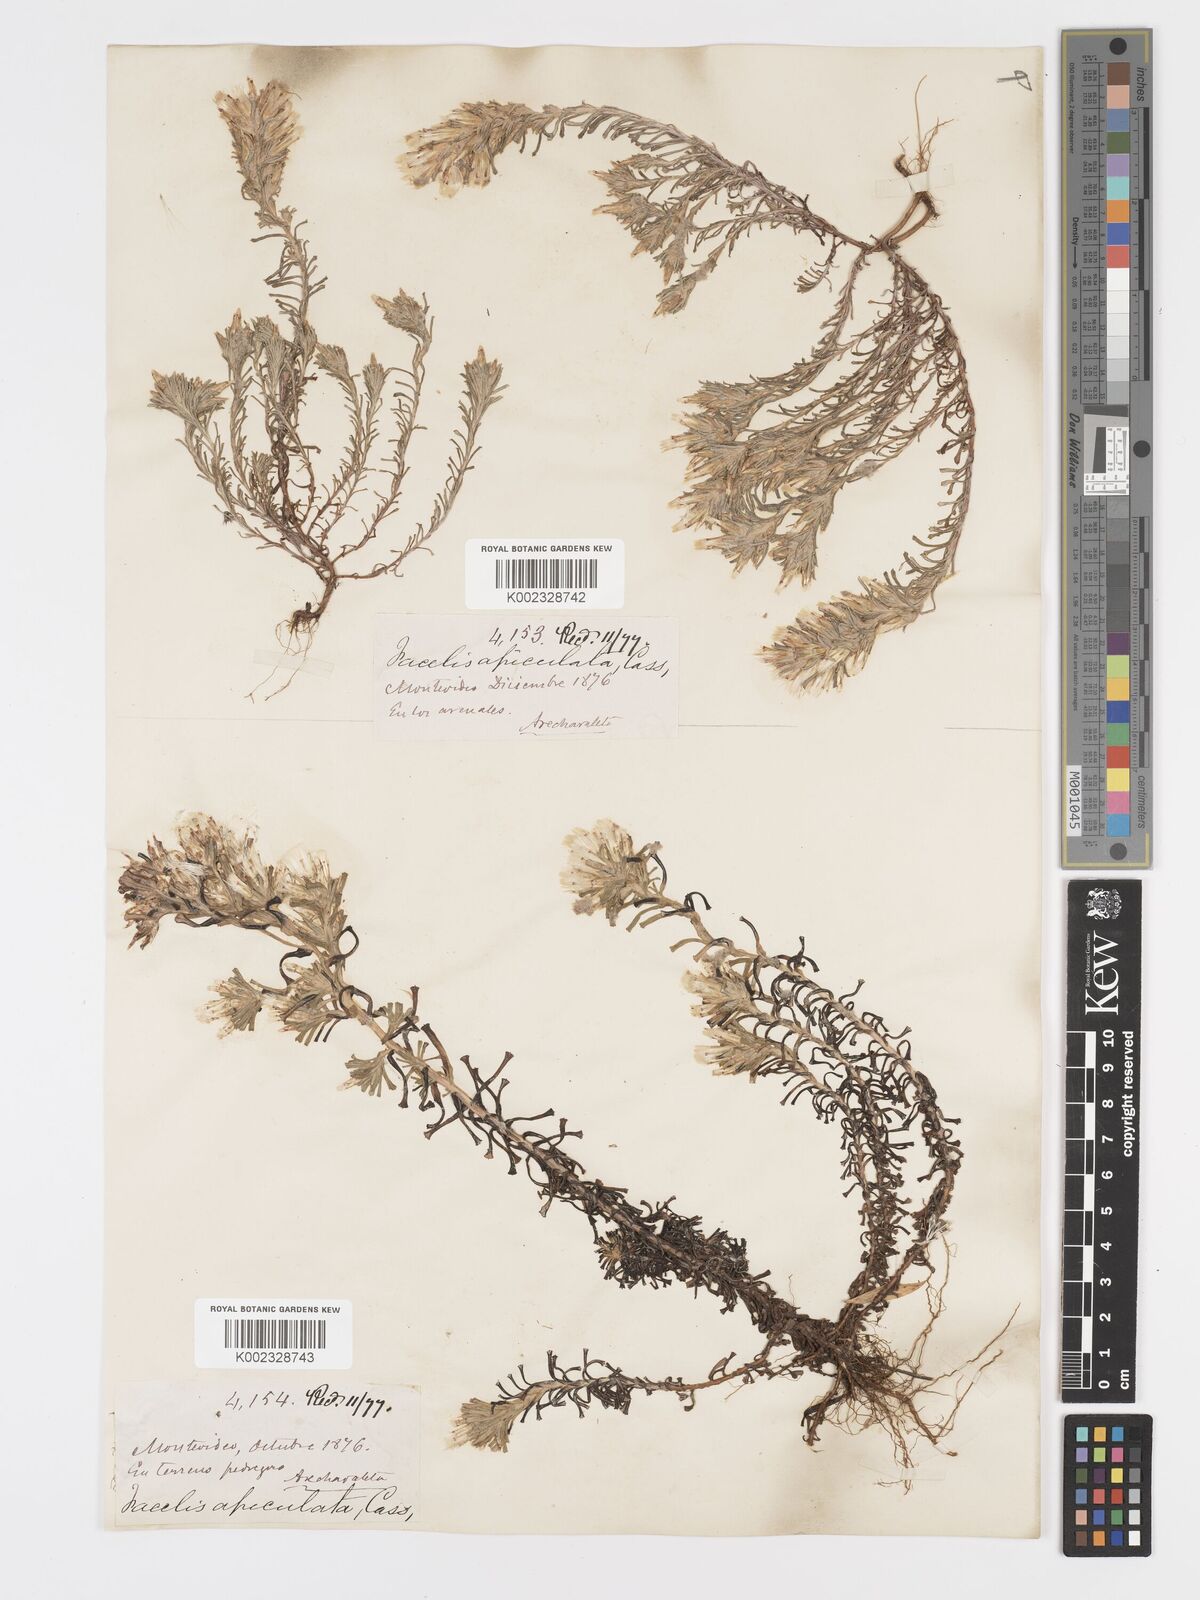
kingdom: Plantae
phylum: Tracheophyta
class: Magnoliopsida
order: Asterales
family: Asteraceae
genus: Facelis
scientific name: Facelis retusa
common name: Annual trampweed
